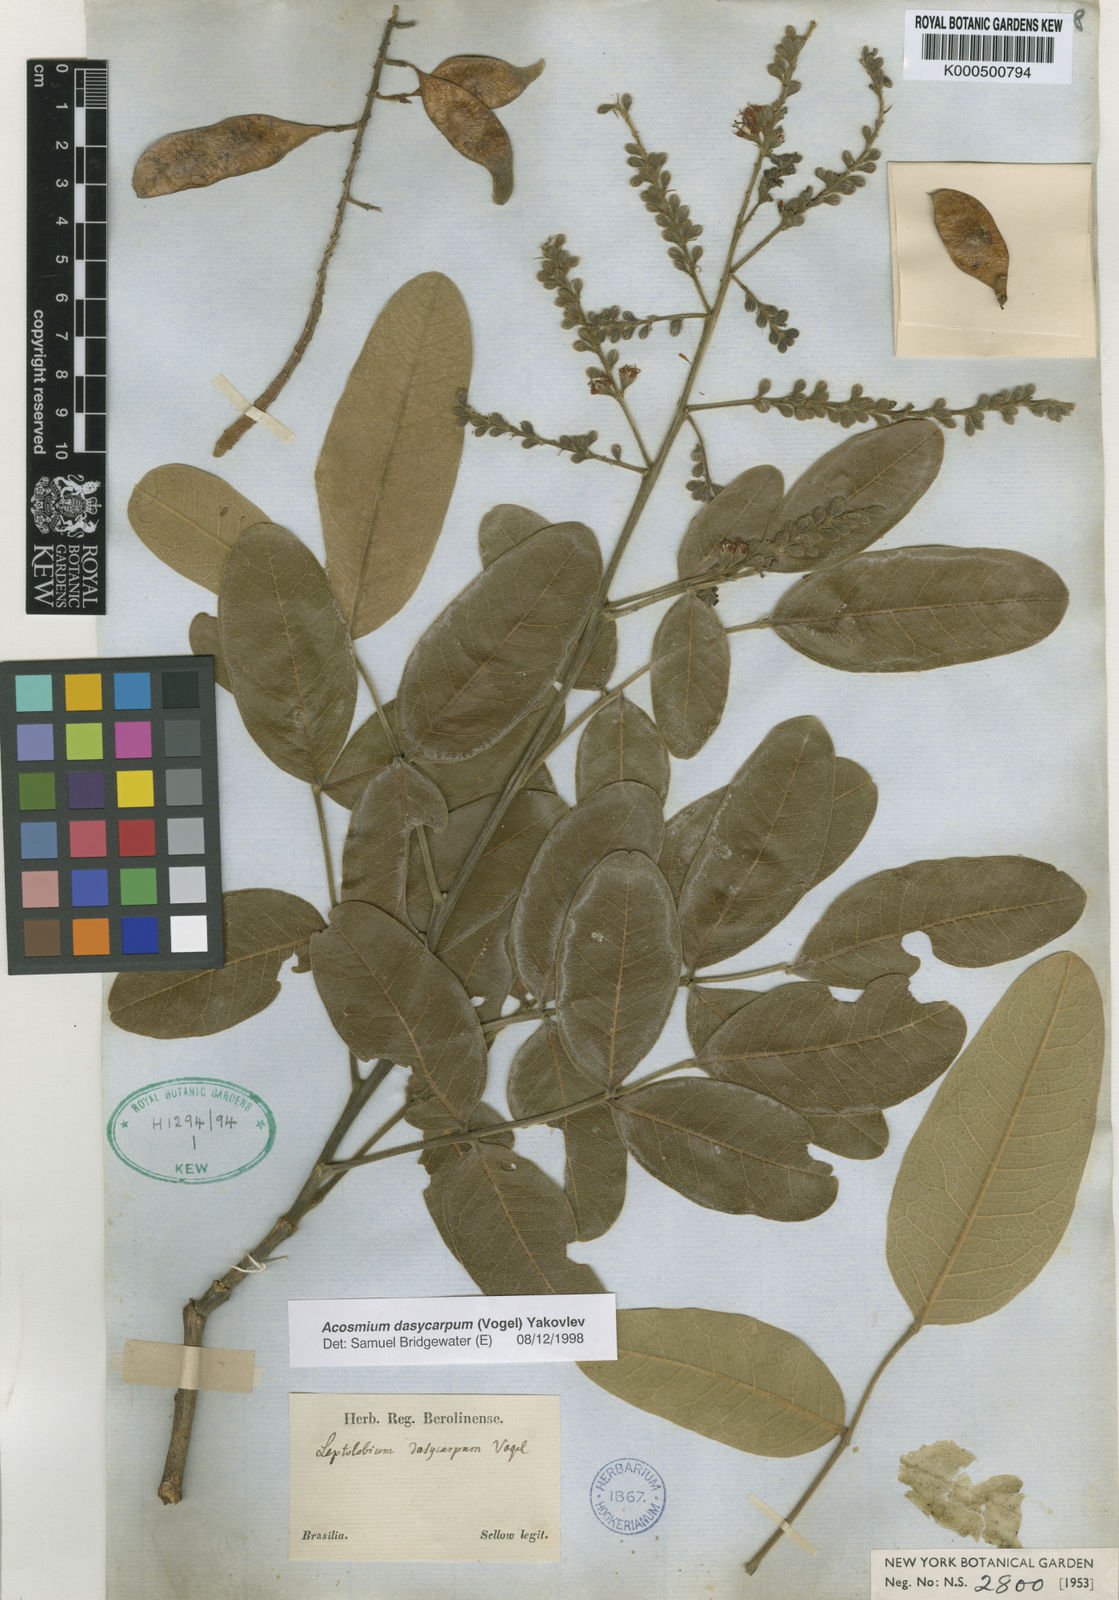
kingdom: Plantae
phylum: Tracheophyta
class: Magnoliopsida
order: Fabales
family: Fabaceae
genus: Leptolobium
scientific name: Leptolobium dasycarpum
